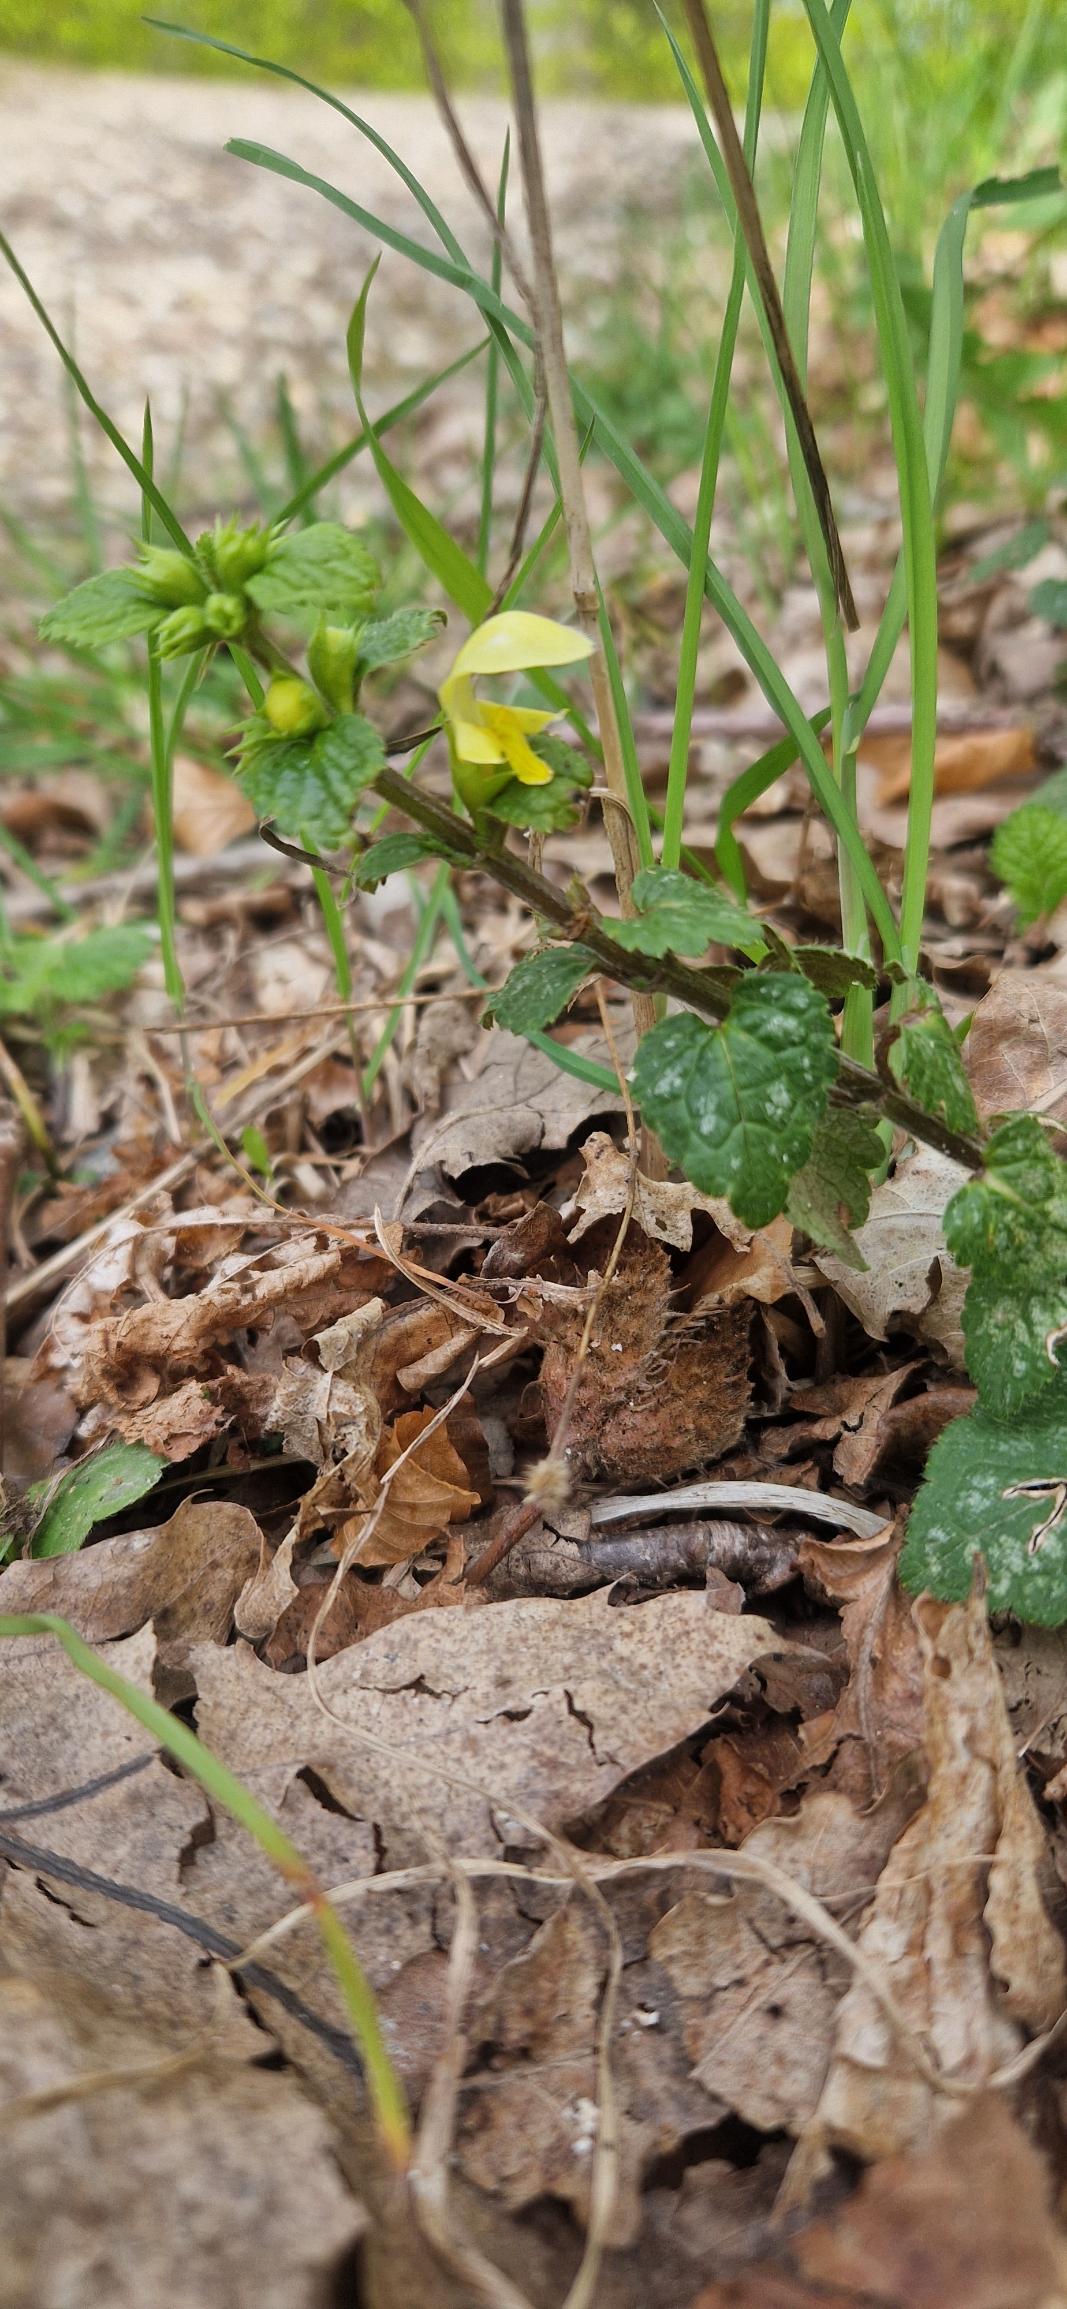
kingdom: Plantae
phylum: Tracheophyta
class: Magnoliopsida
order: Lamiales
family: Lamiaceae
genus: Lamium
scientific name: Lamium galeobdolon
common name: Almindelig guldnælde
